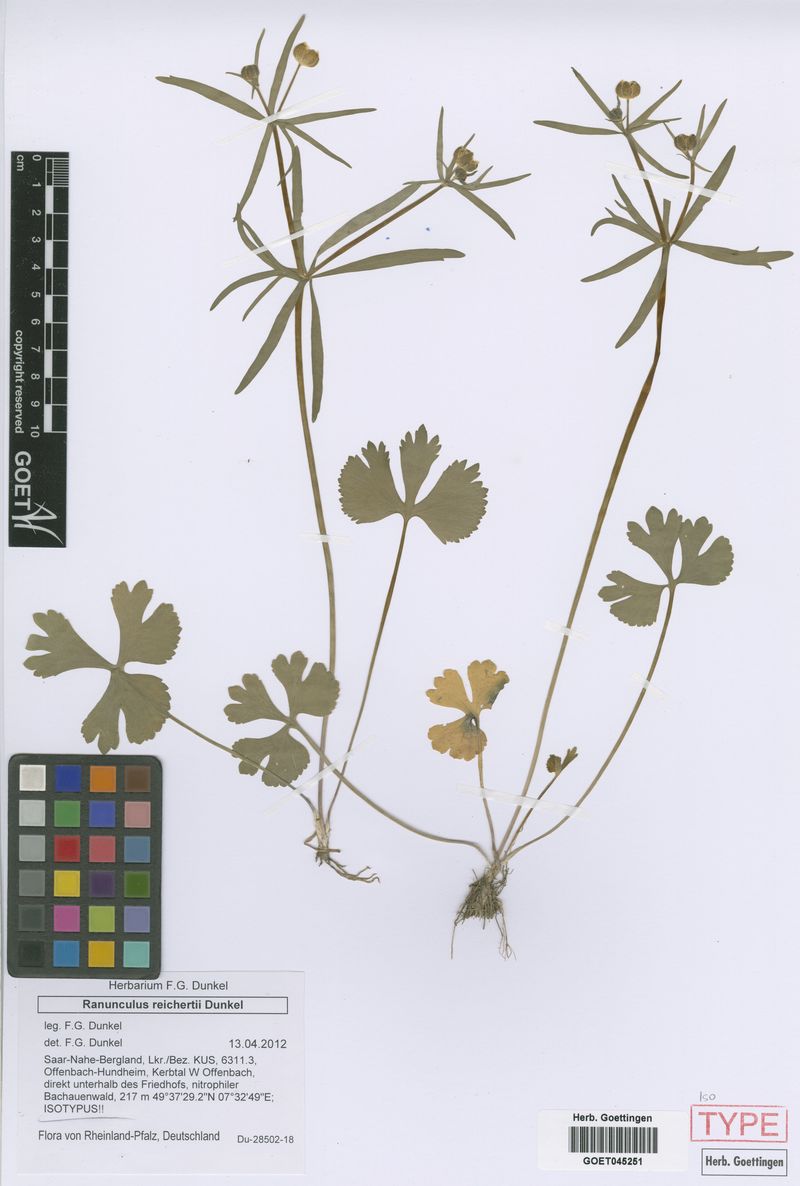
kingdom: Plantae
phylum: Tracheophyta
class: Magnoliopsida
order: Ranunculales
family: Ranunculaceae
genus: Ranunculus
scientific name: Ranunculus reichertii
